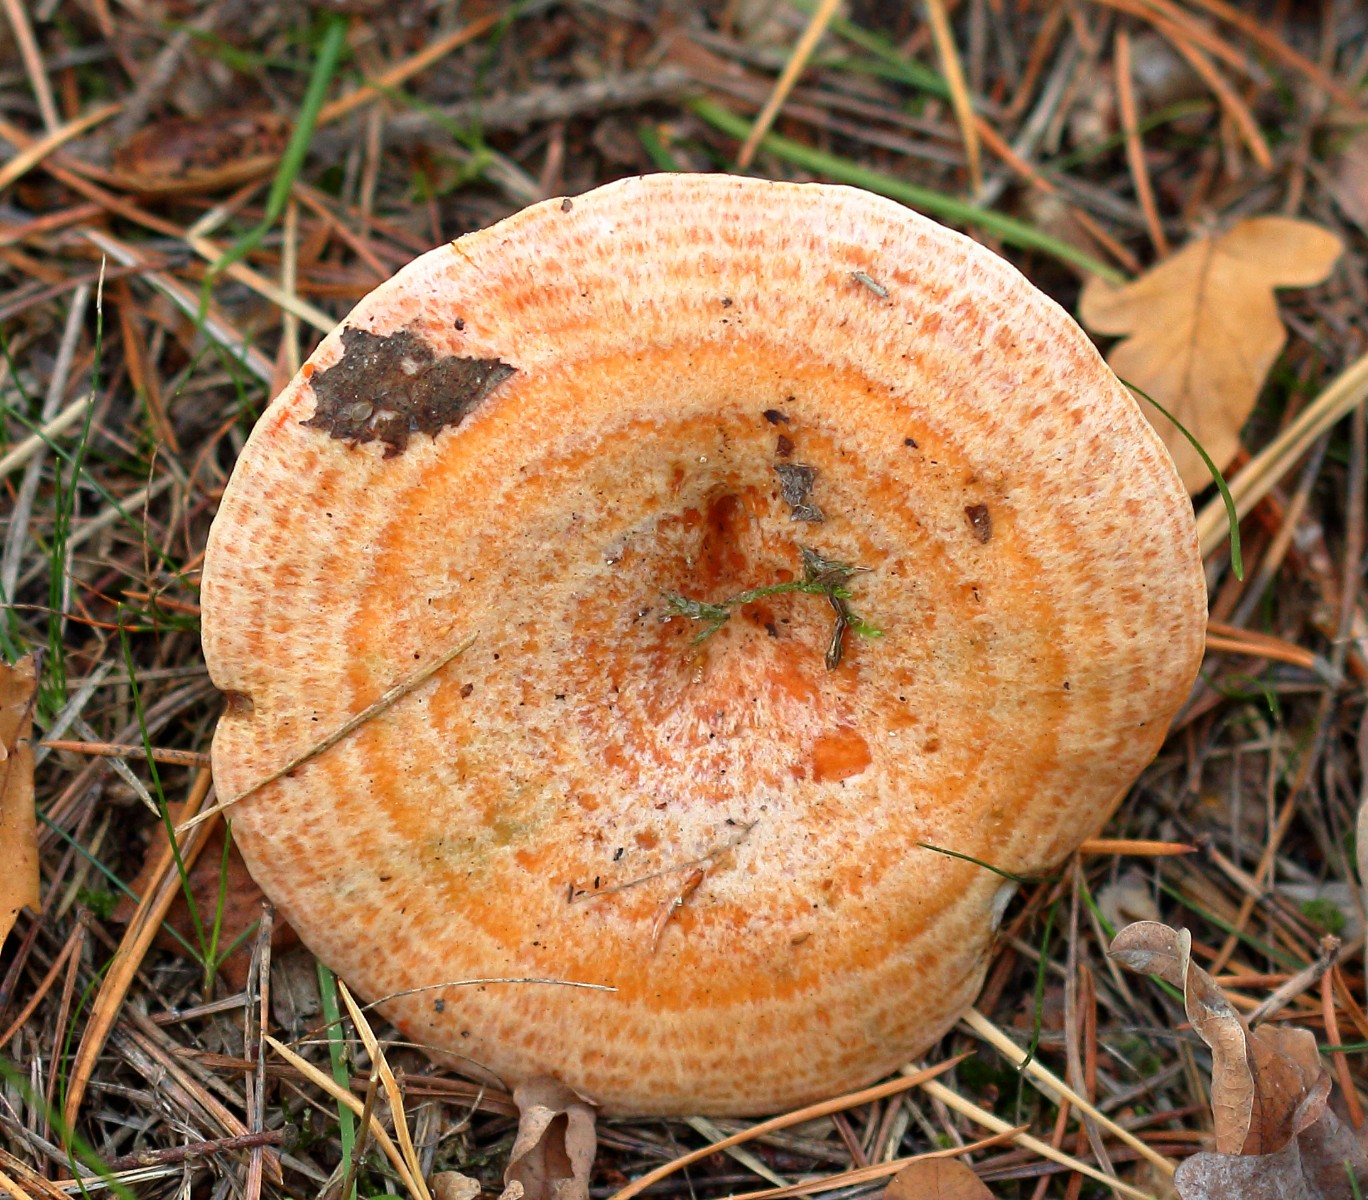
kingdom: Fungi
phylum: Basidiomycota
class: Agaricomycetes
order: Russulales
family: Russulaceae
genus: Lactarius
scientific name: Lactarius deliciosus
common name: velsmagende mælkehat
